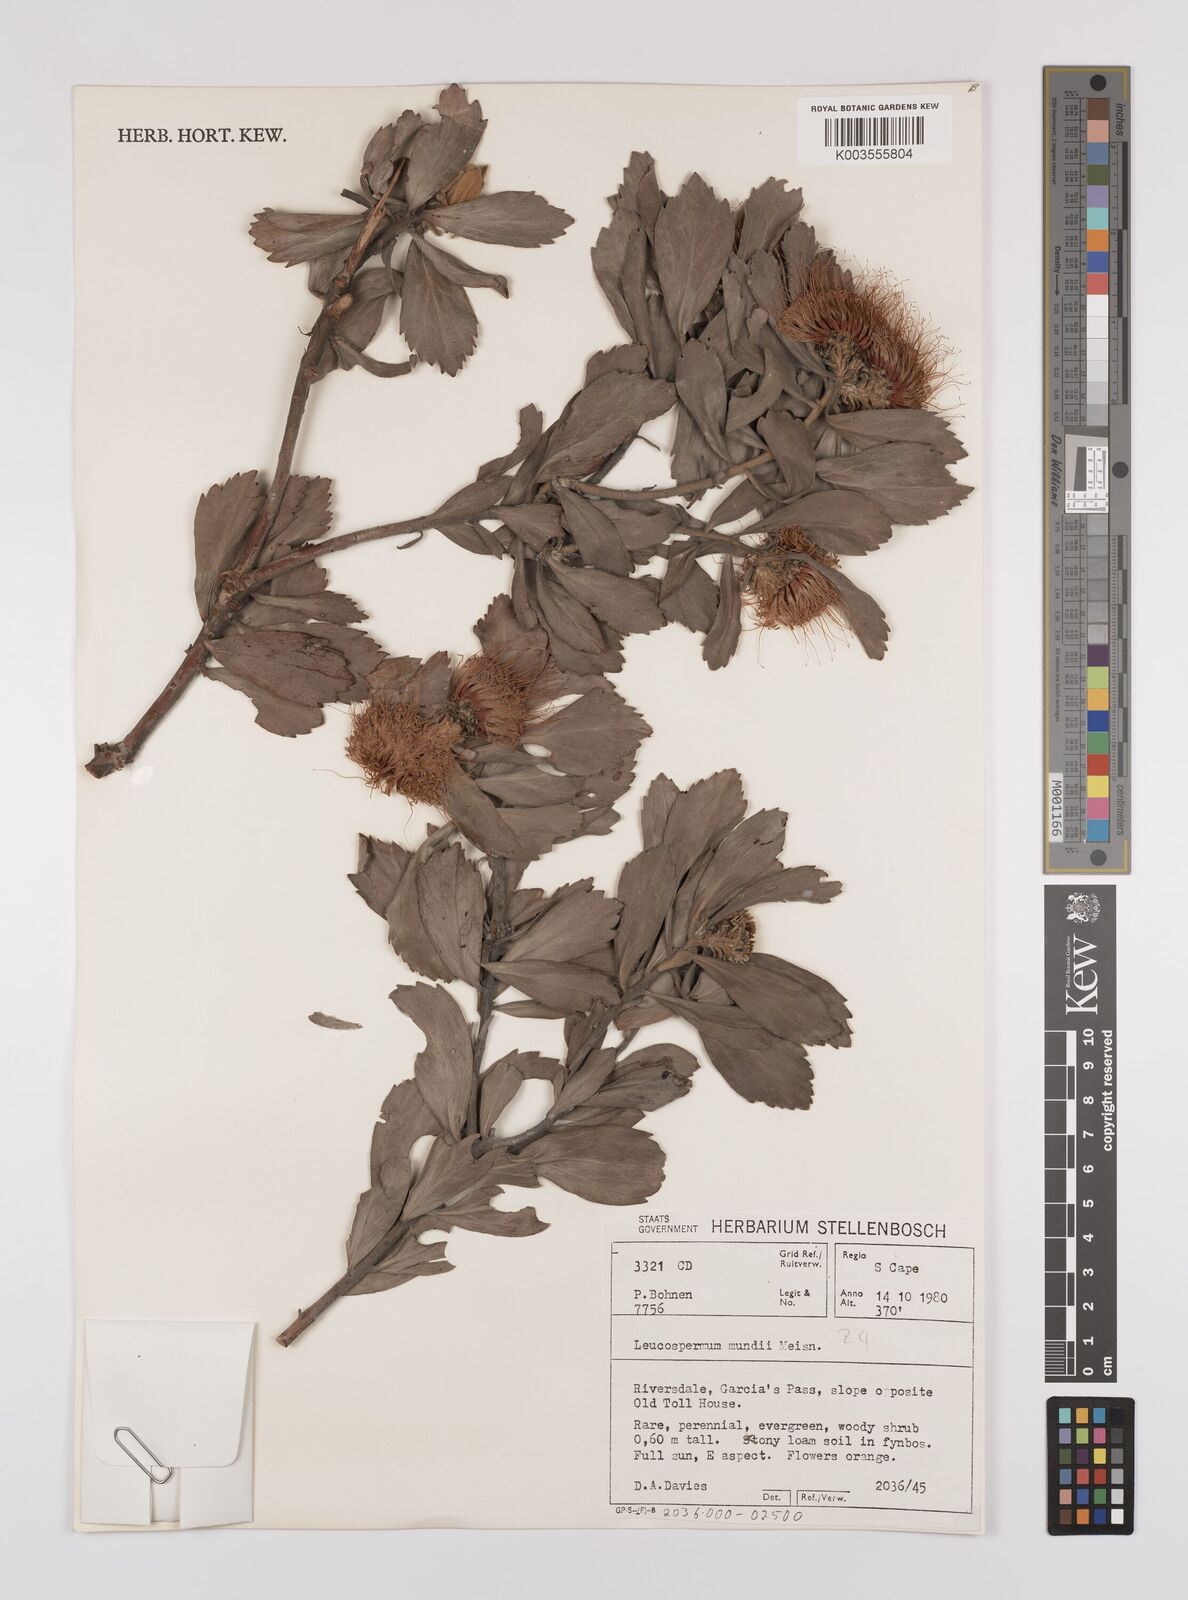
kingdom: Plantae
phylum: Tracheophyta
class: Magnoliopsida
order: Proteales
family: Proteaceae
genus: Leucospermum
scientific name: Leucospermum mundii
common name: Langeberg pincushion
